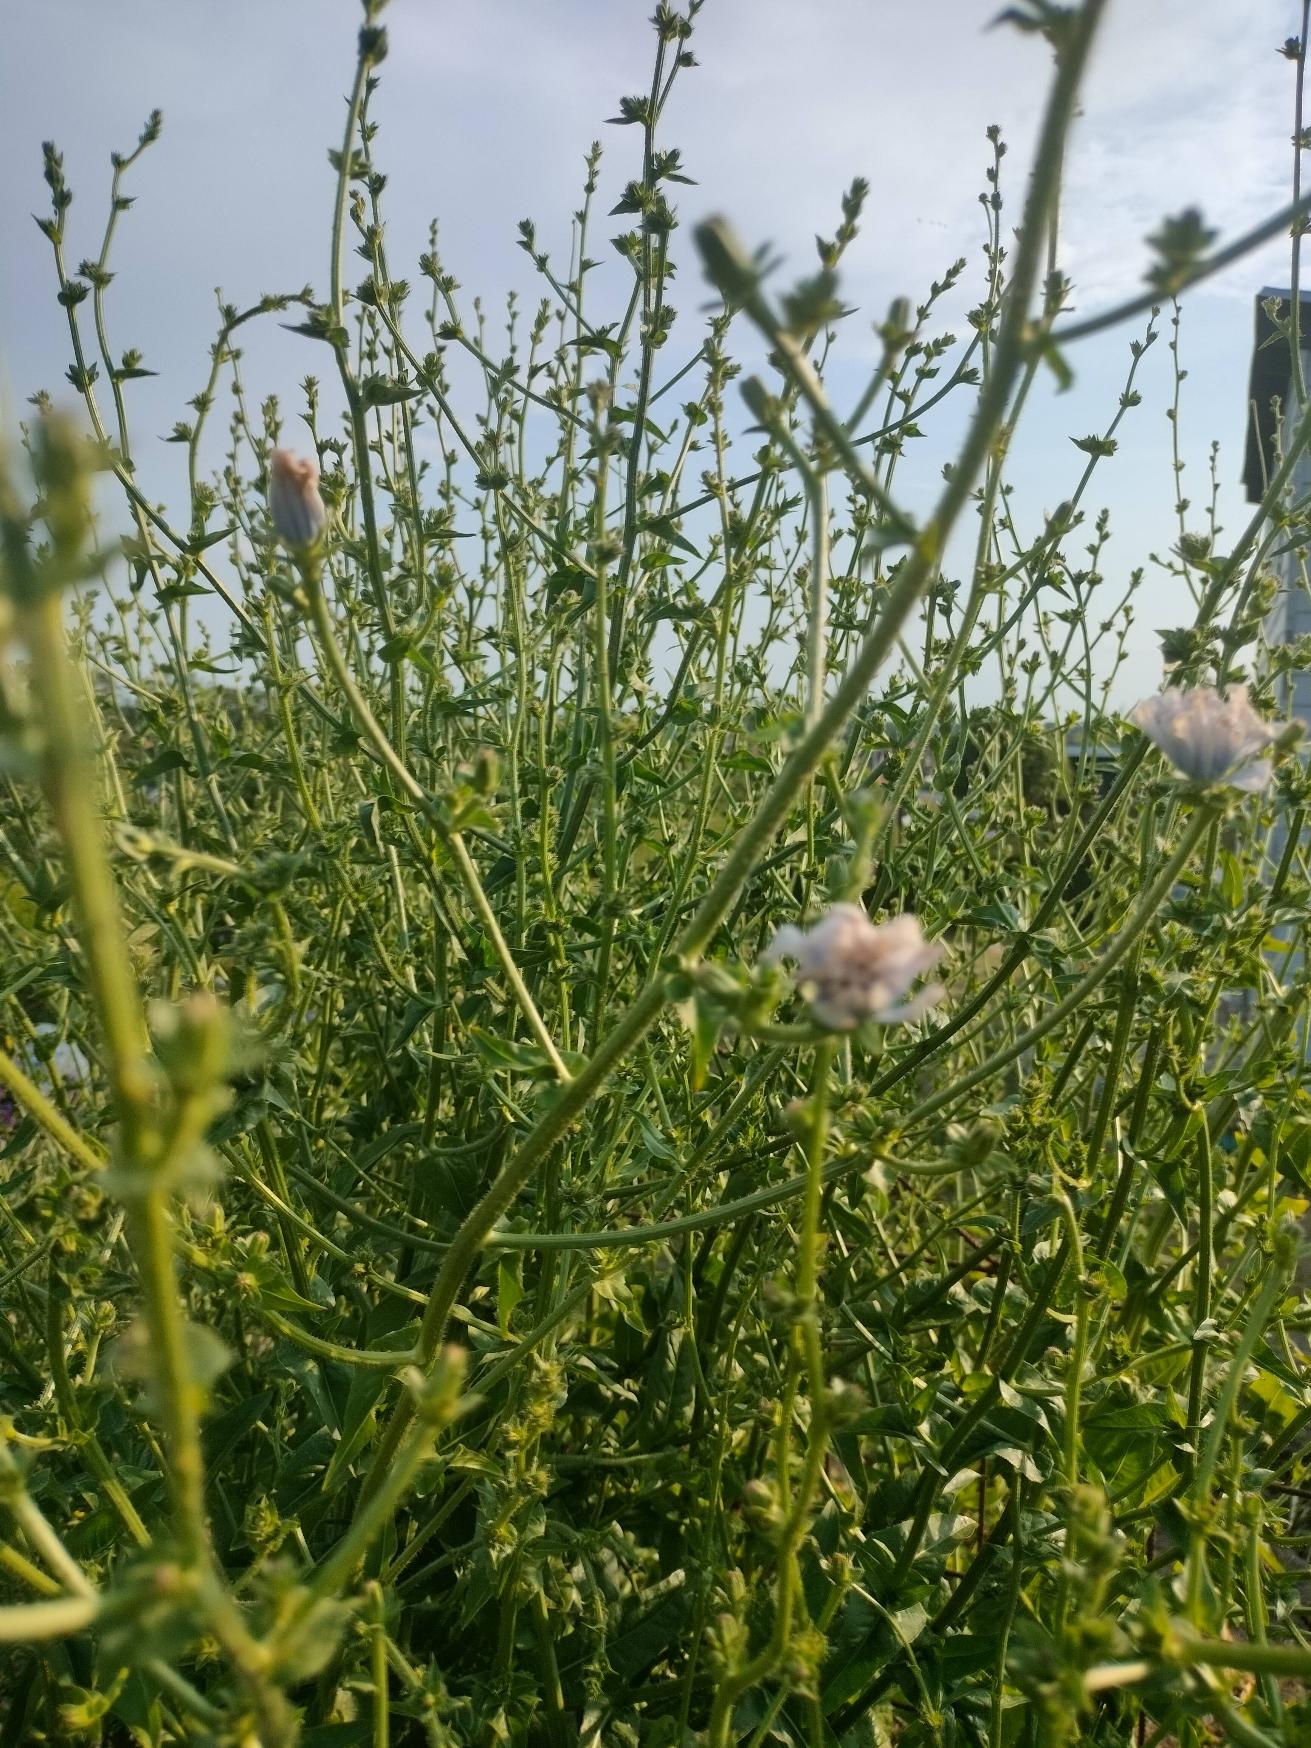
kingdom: Plantae
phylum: Tracheophyta
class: Magnoliopsida
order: Asterales
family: Asteraceae
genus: Cichorium
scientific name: Cichorium intybus
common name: Cikorie
